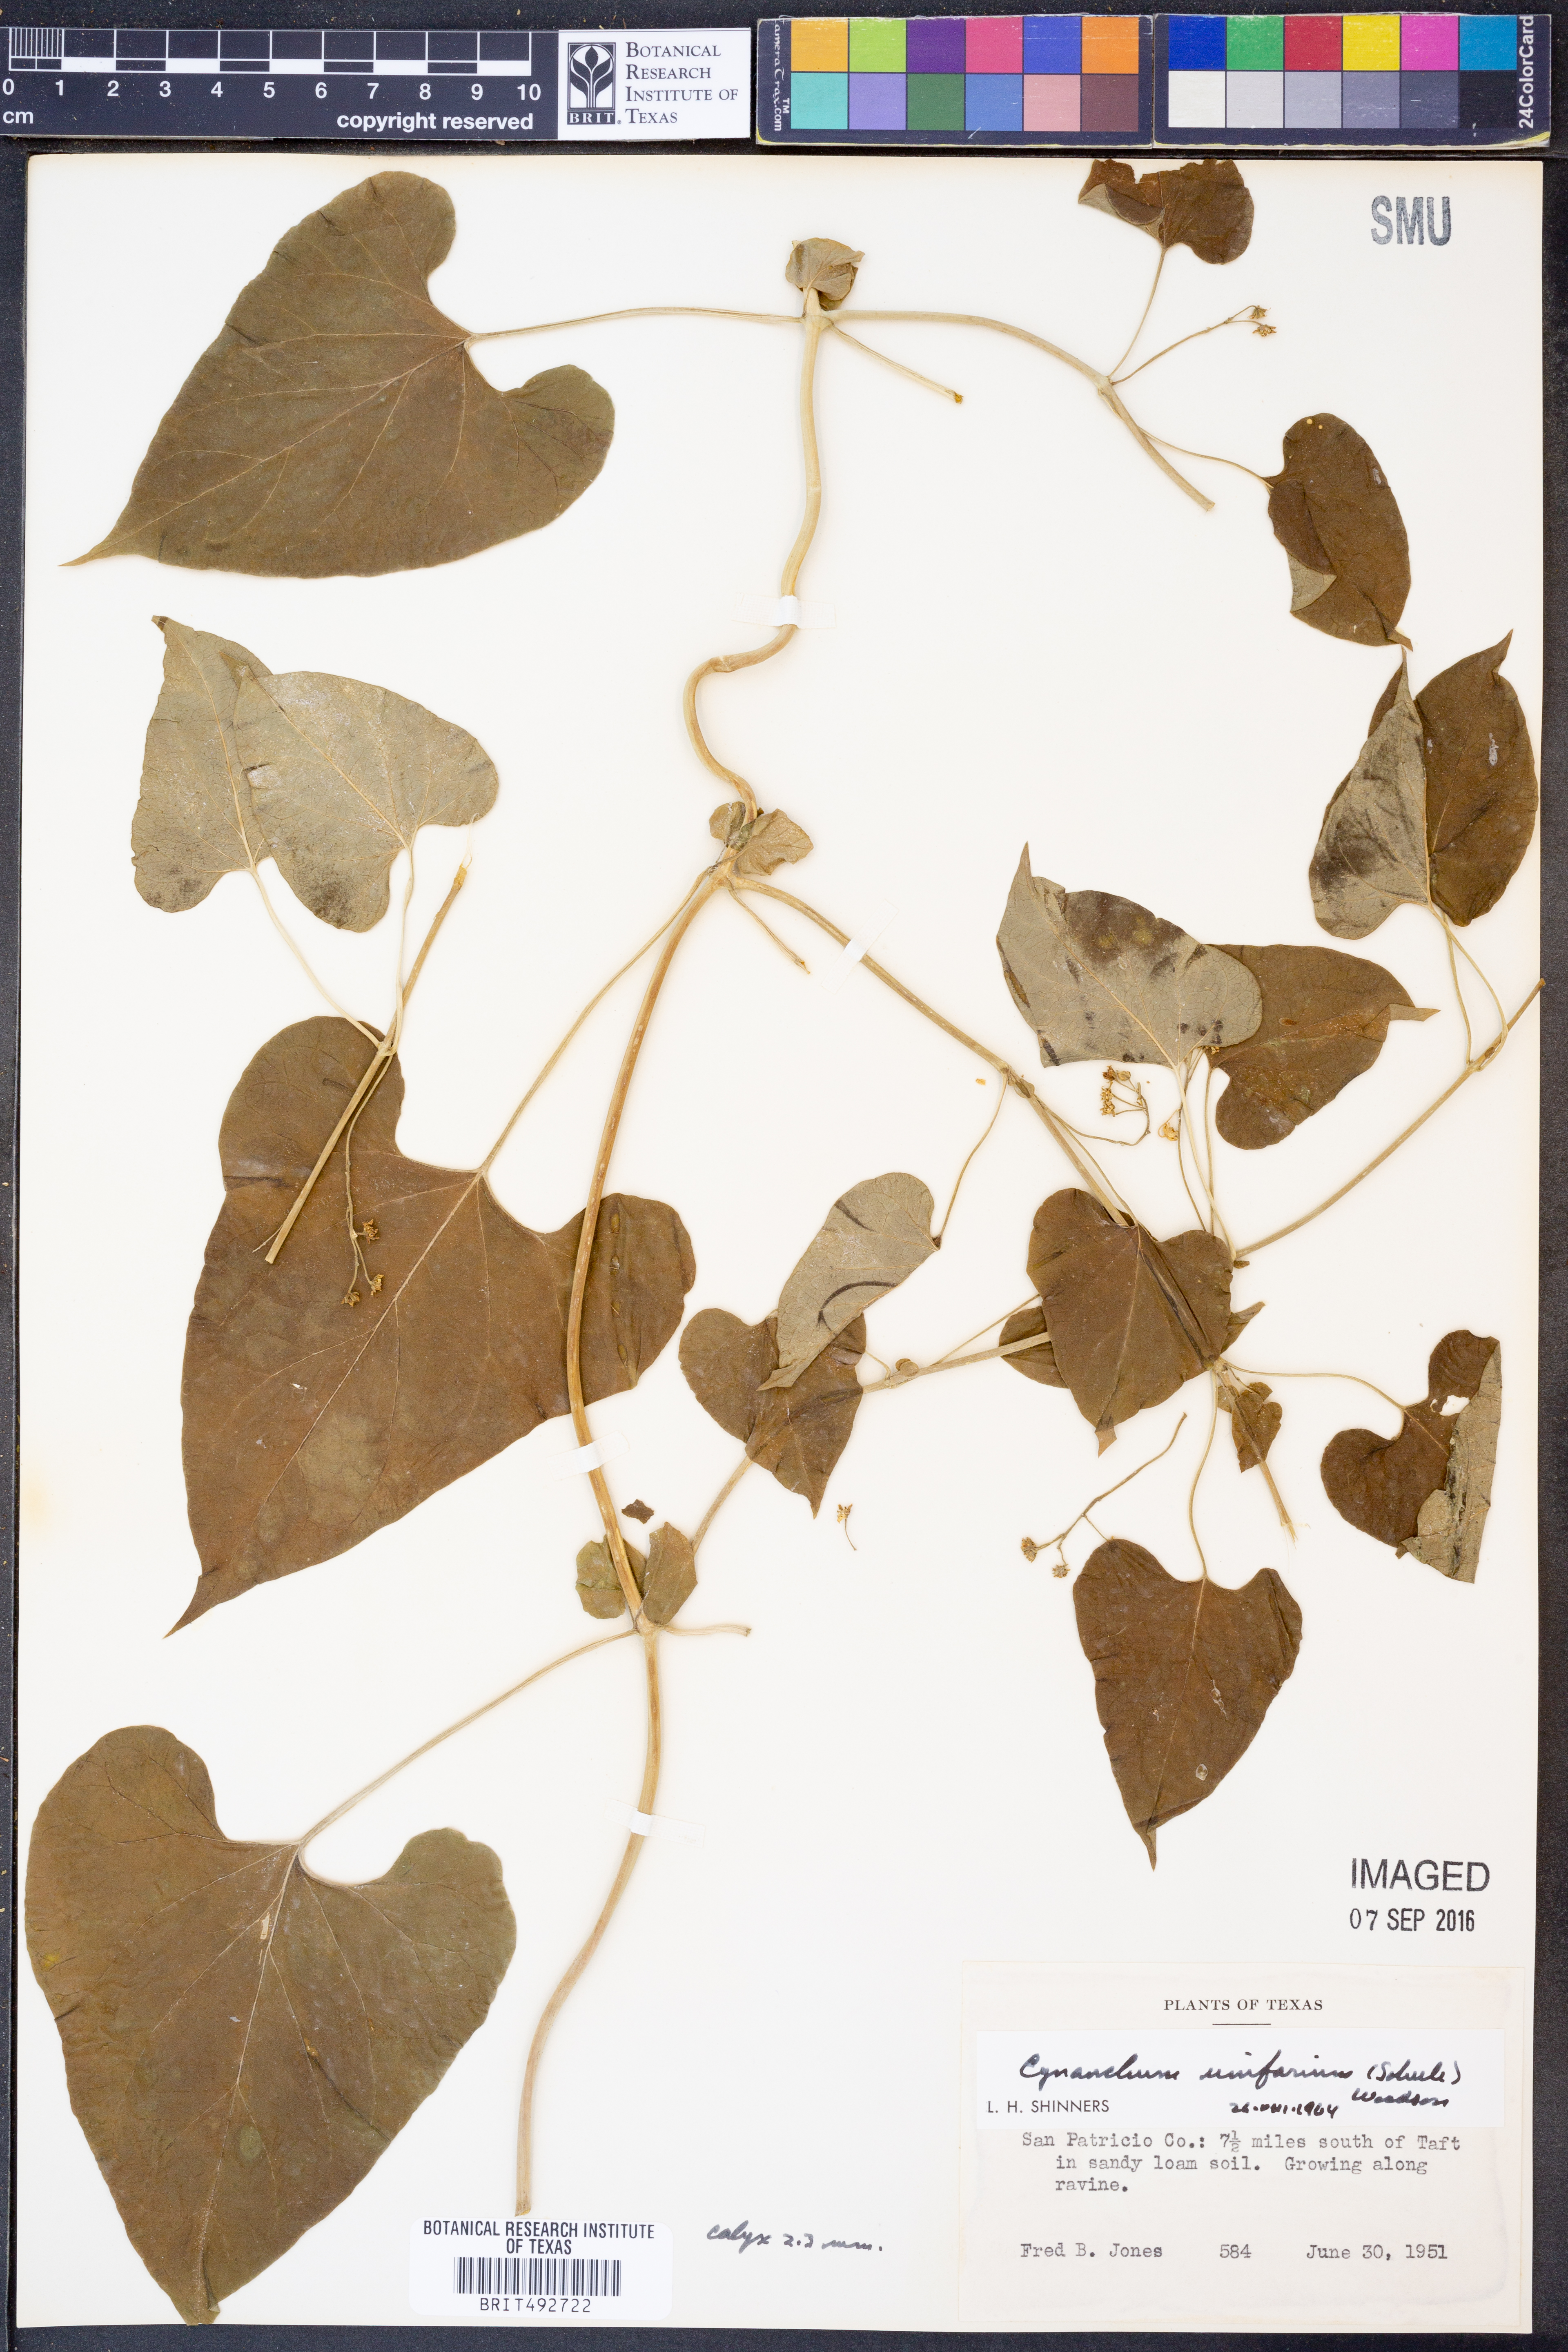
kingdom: Plantae
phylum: Tracheophyta
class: Magnoliopsida
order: Gentianales
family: Apocynaceae
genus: Cynanchum
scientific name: Cynanchum racemosum
